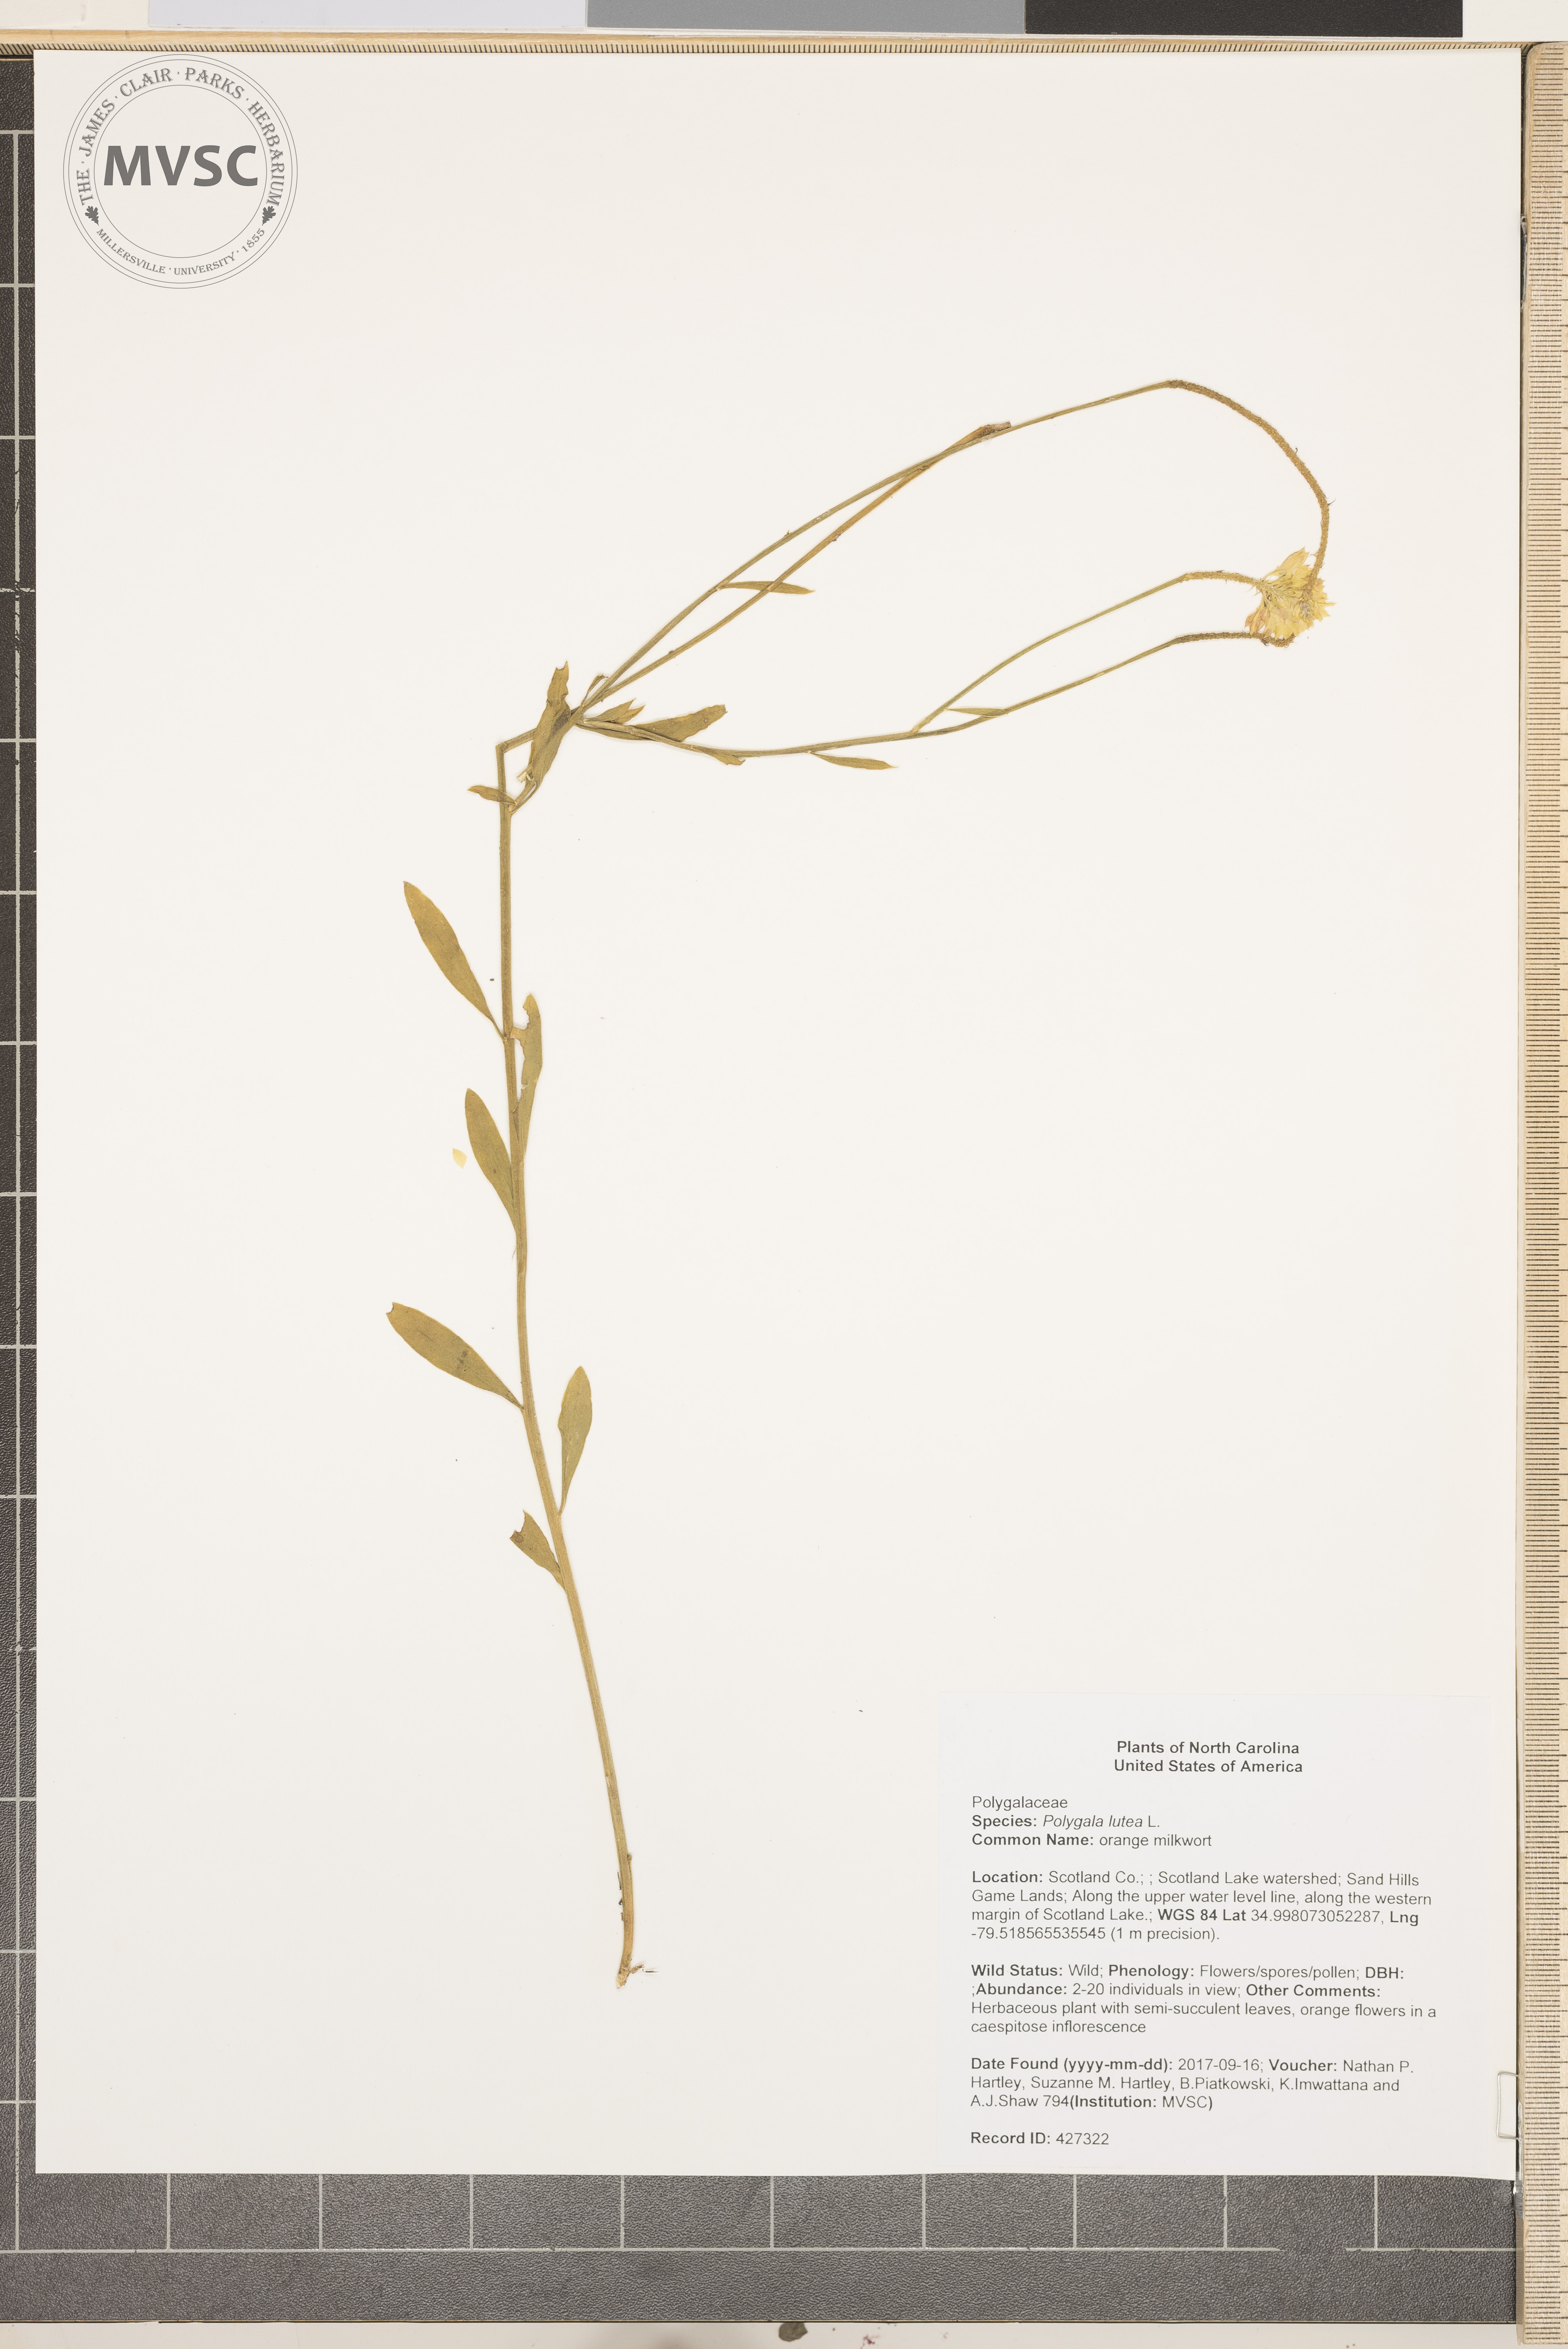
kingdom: Plantae
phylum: Tracheophyta
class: Magnoliopsida
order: Fabales
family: Polygalaceae
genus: Polygala
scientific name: Polygala lutea
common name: orange milkwort
